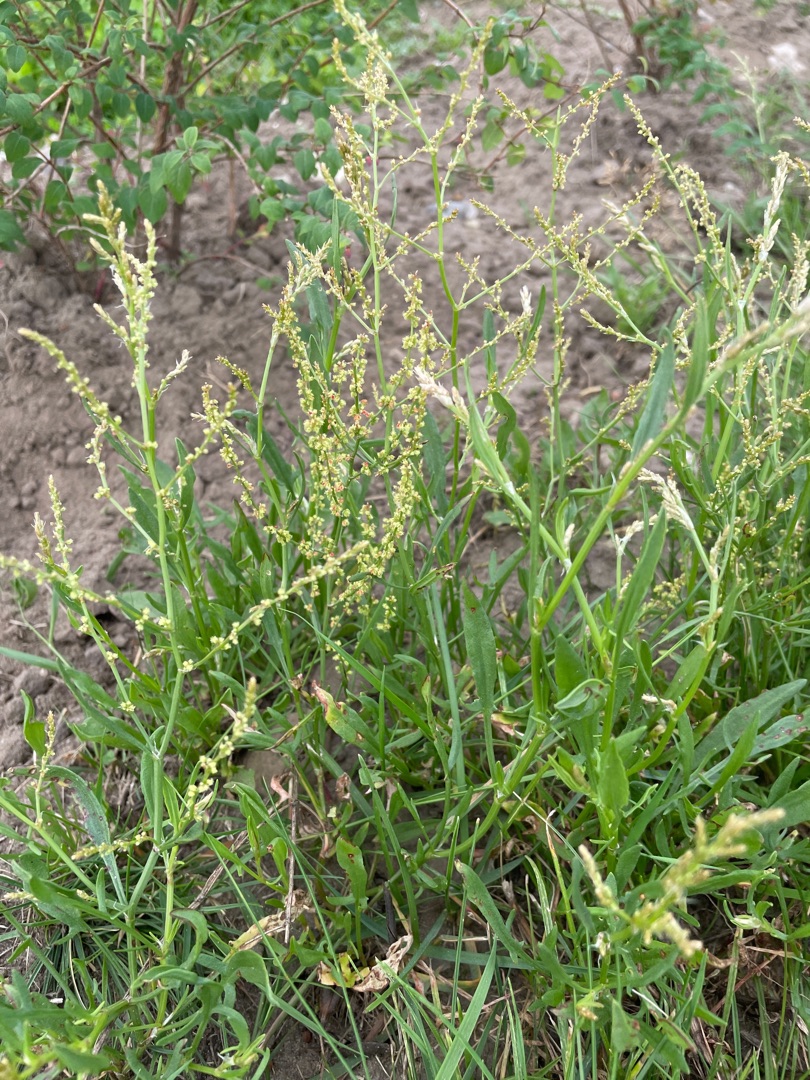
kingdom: Plantae
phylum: Tracheophyta
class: Magnoliopsida
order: Caryophyllales
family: Polygonaceae
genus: Rumex
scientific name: Rumex acetosella
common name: Rødknæ
